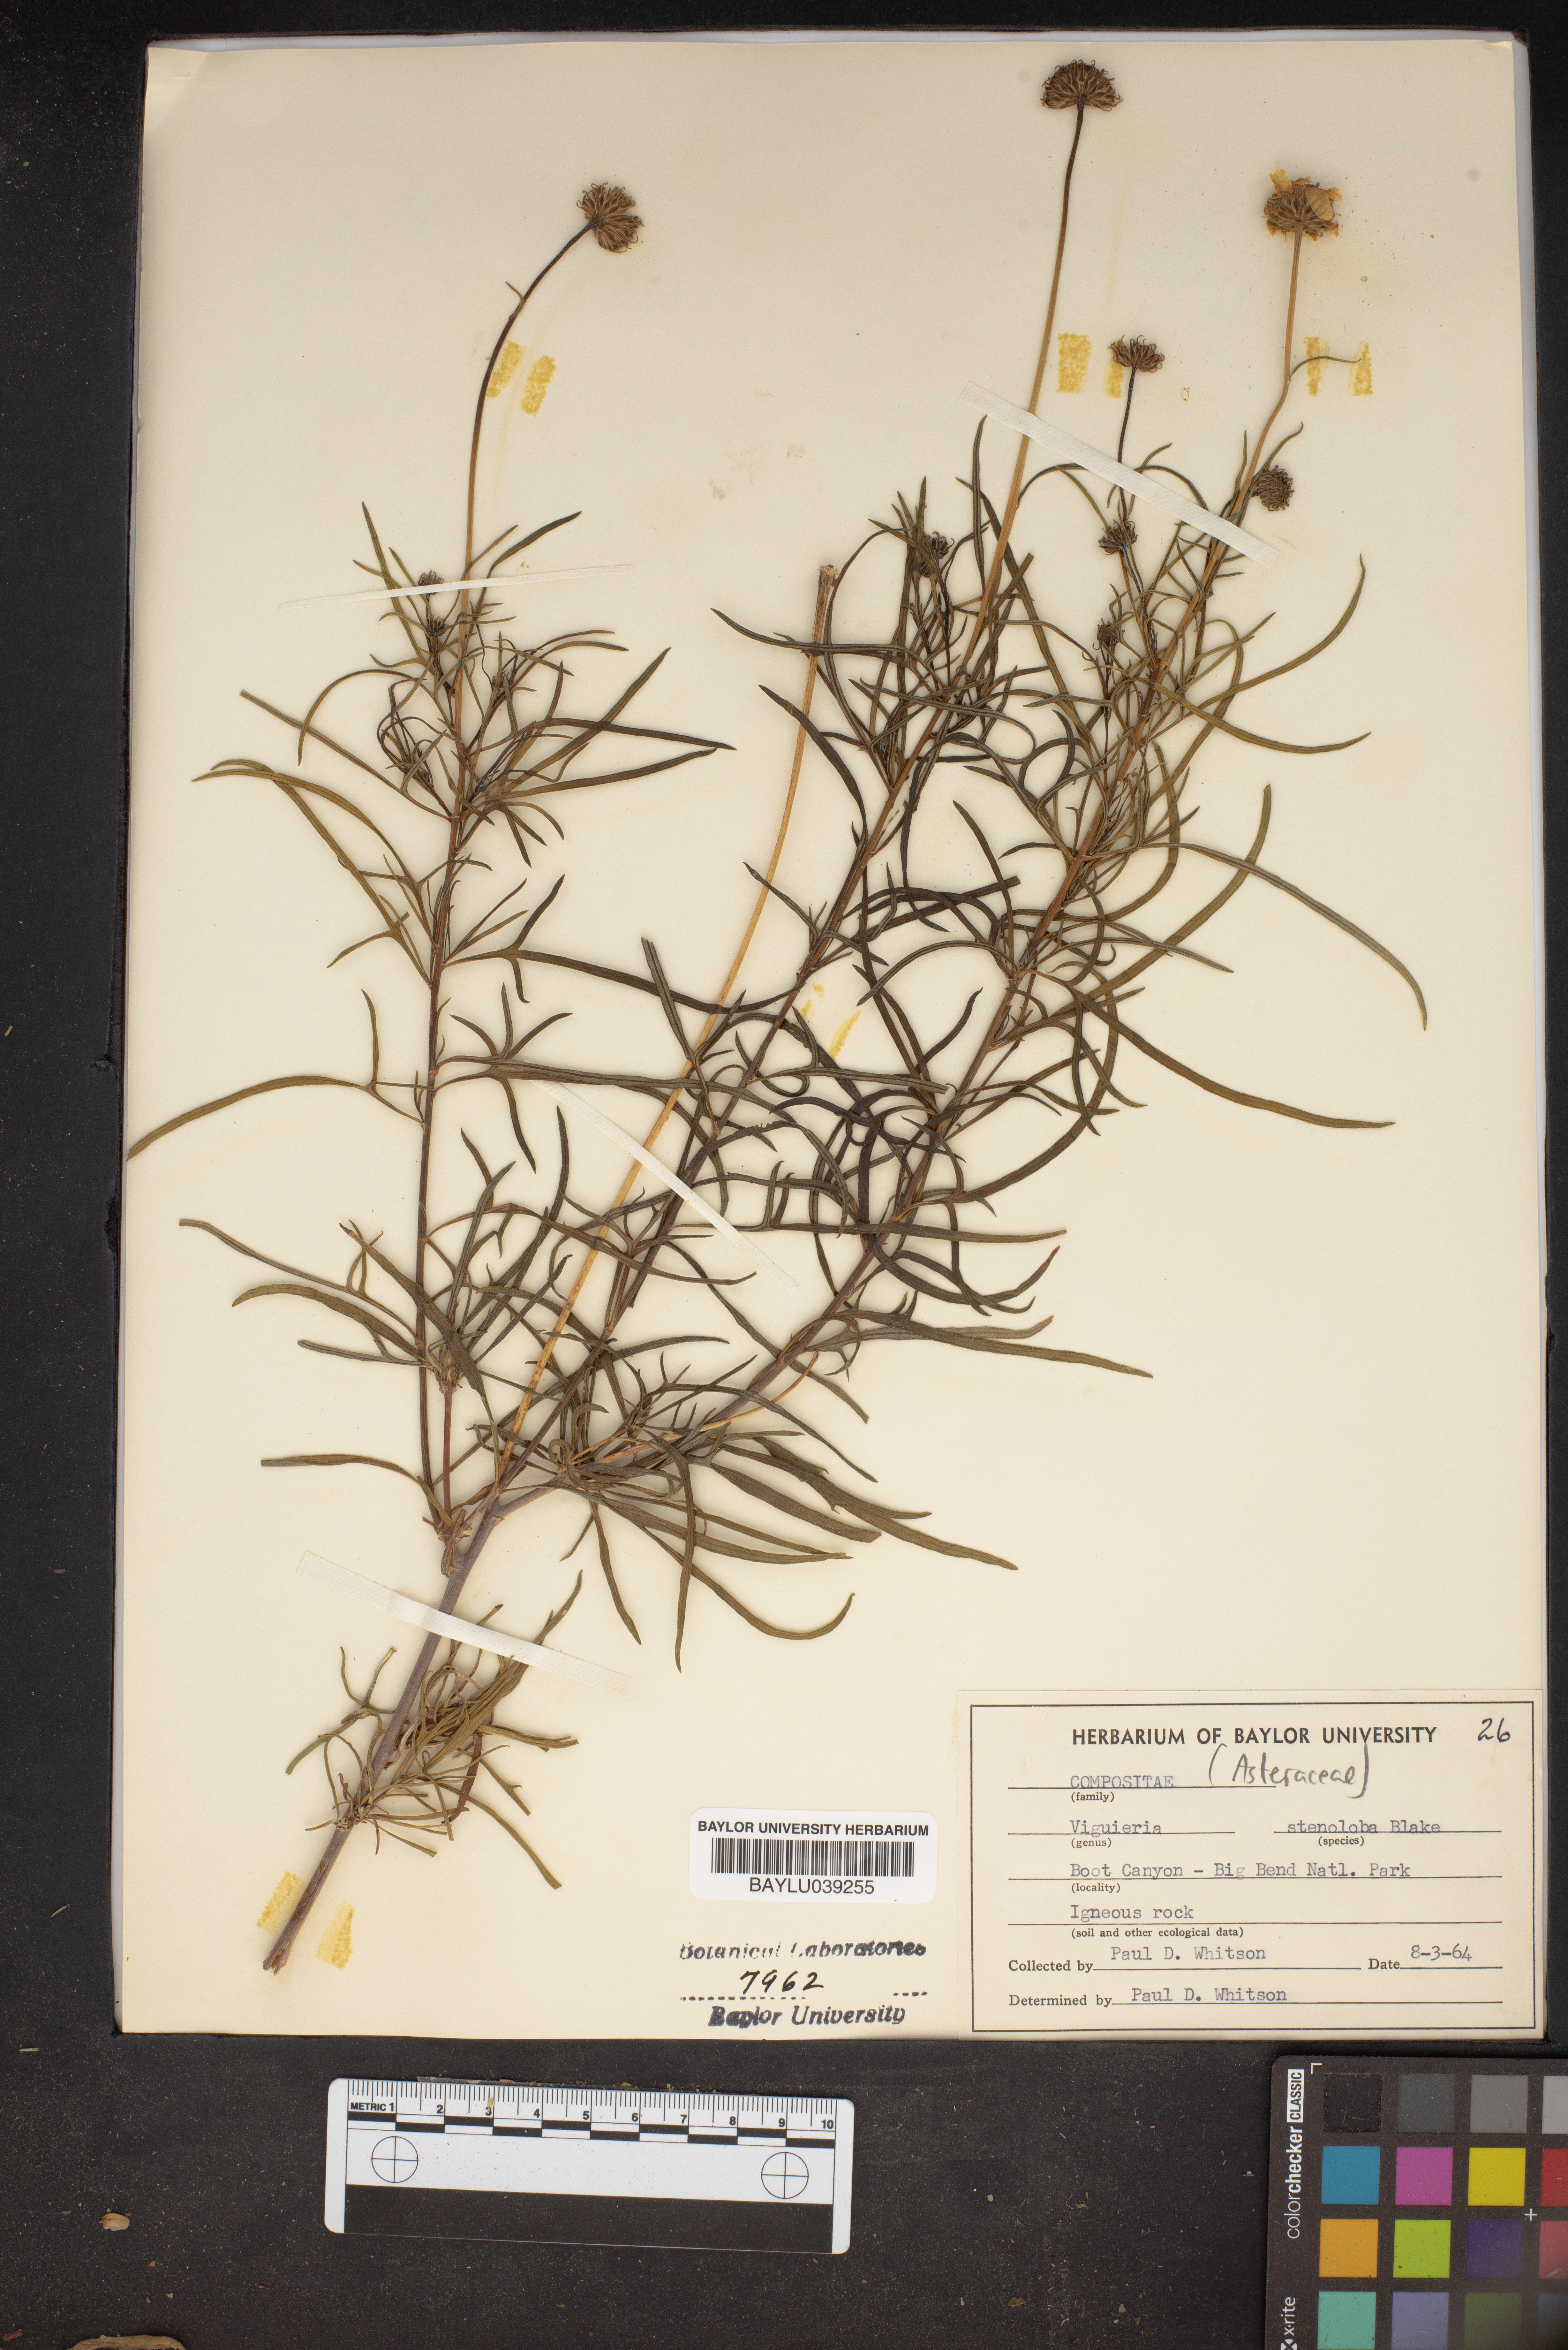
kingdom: Plantae
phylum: Tracheophyta
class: Magnoliopsida
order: Asterales
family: Asteraceae
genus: Sidneya
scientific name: Sidneya tenuifolia
